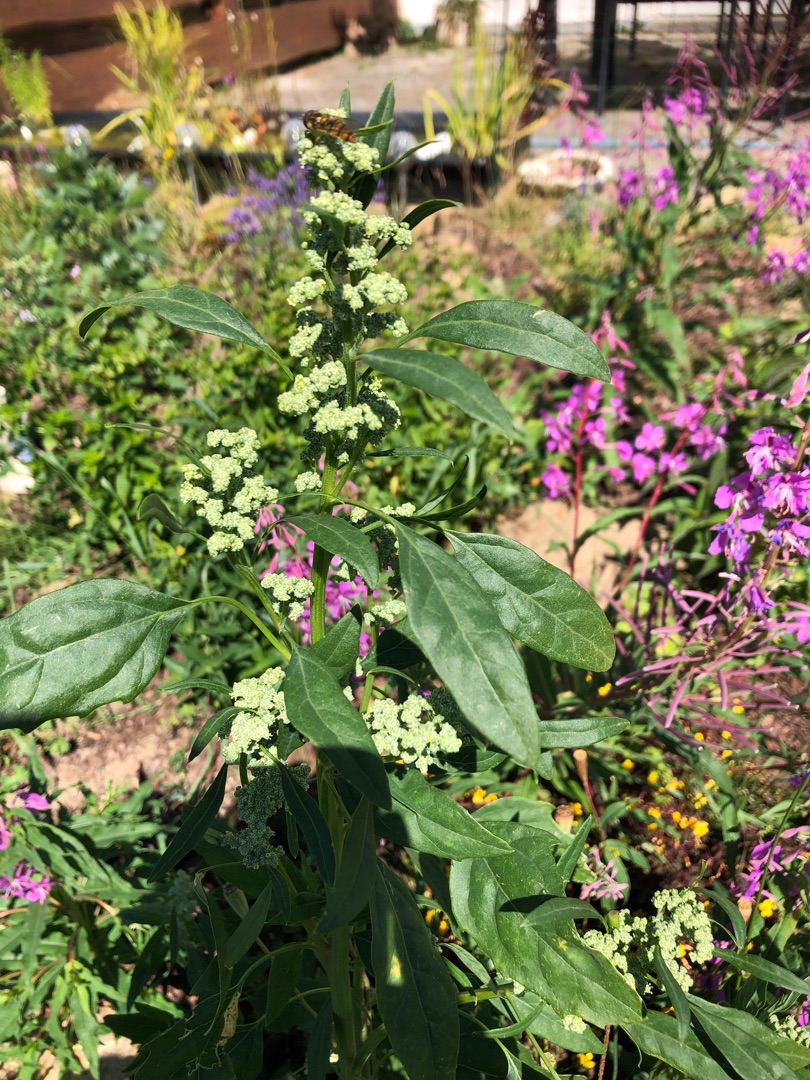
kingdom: Plantae
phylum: Tracheophyta
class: Magnoliopsida
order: Caryophyllales
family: Amaranthaceae
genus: Chenopodium
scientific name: Chenopodium pratericola
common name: Finbladet gåsefod
